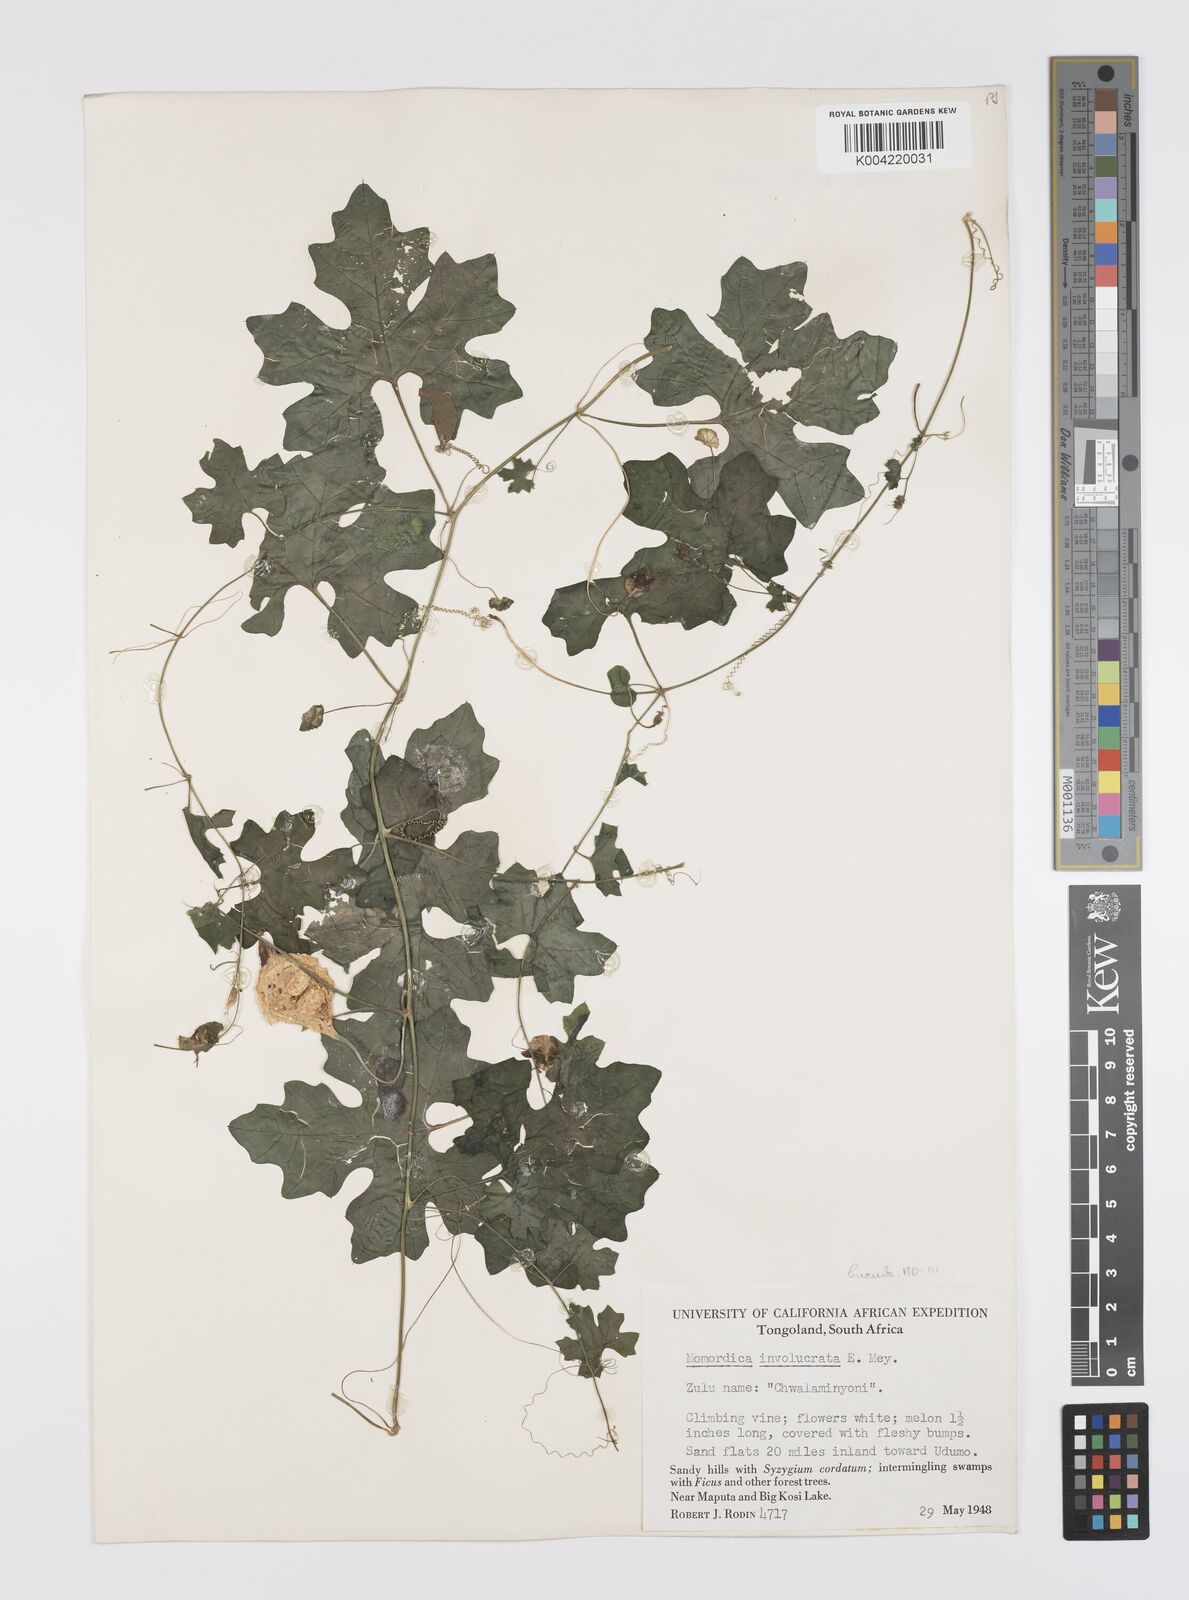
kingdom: Plantae
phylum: Tracheophyta
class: Magnoliopsida
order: Cucurbitales
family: Cucurbitaceae
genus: Momordica
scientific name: Momordica balsamina
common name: Southern balsampear
